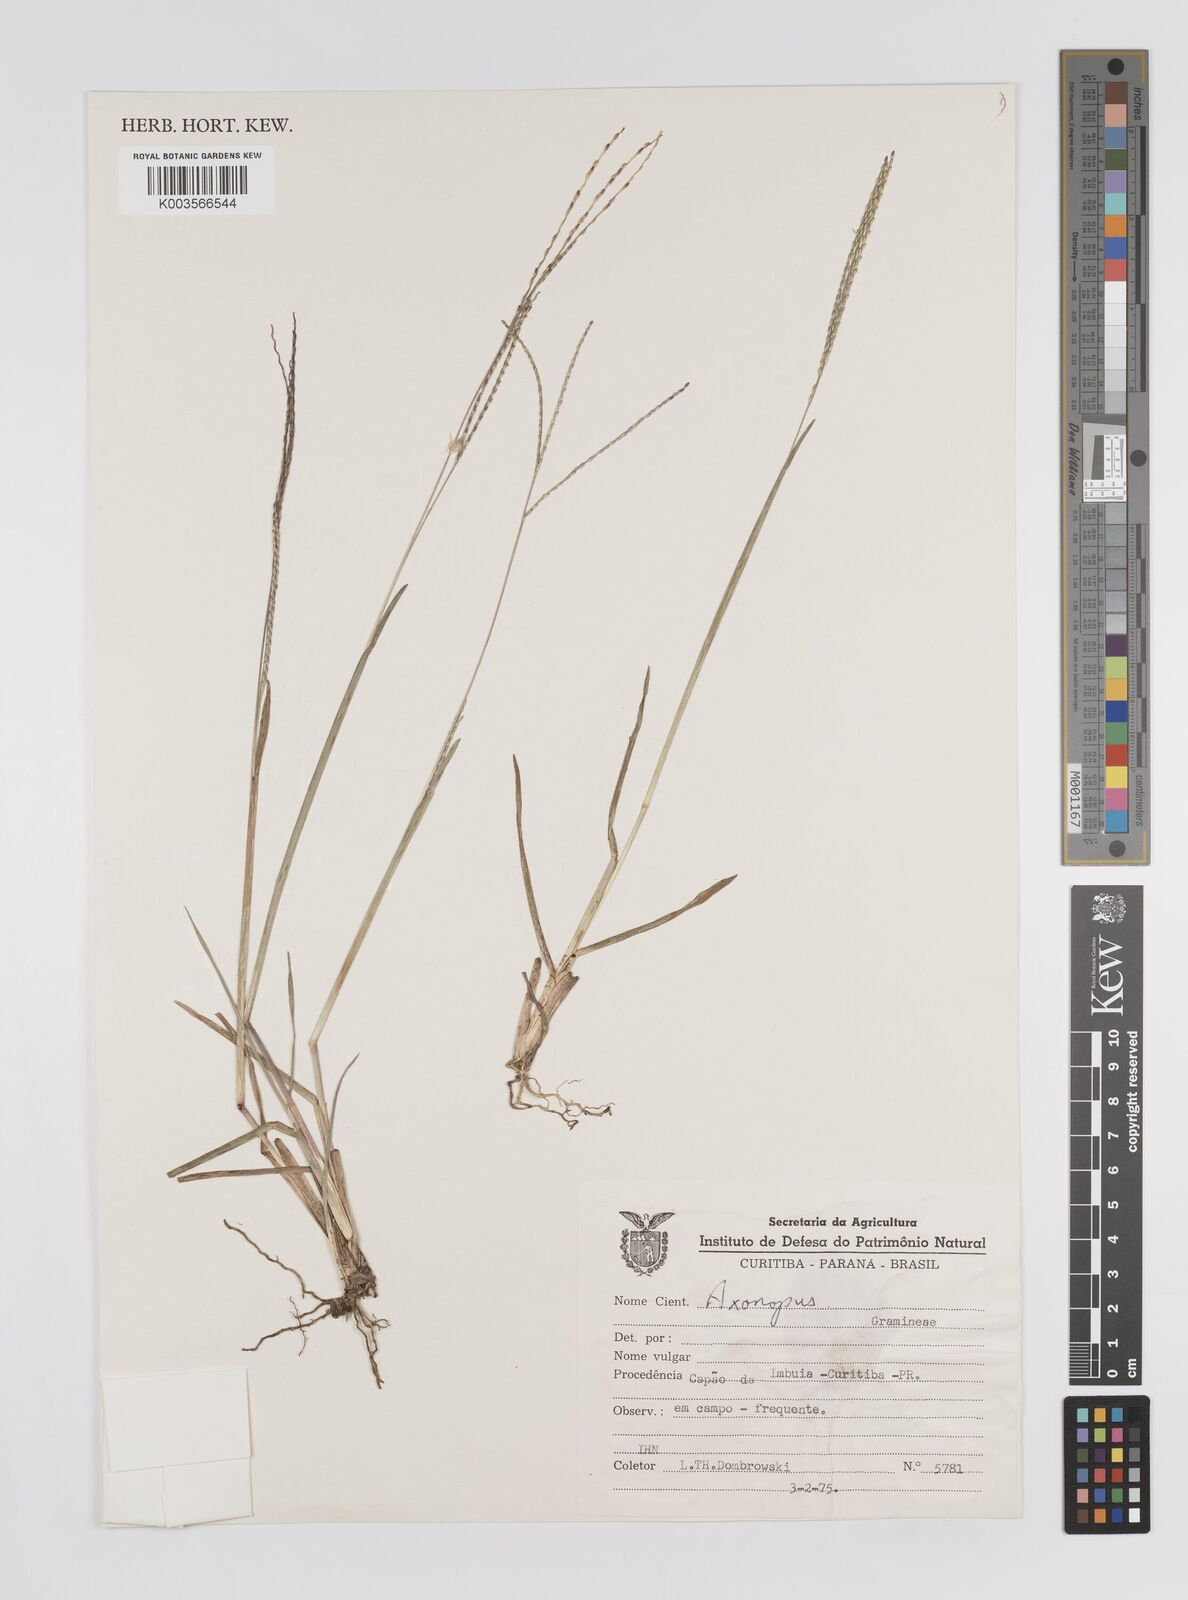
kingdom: Plantae
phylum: Tracheophyta
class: Liliopsida
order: Poales
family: Poaceae
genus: Axonopus
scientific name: Axonopus fissifolius
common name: Common carpetgrass
